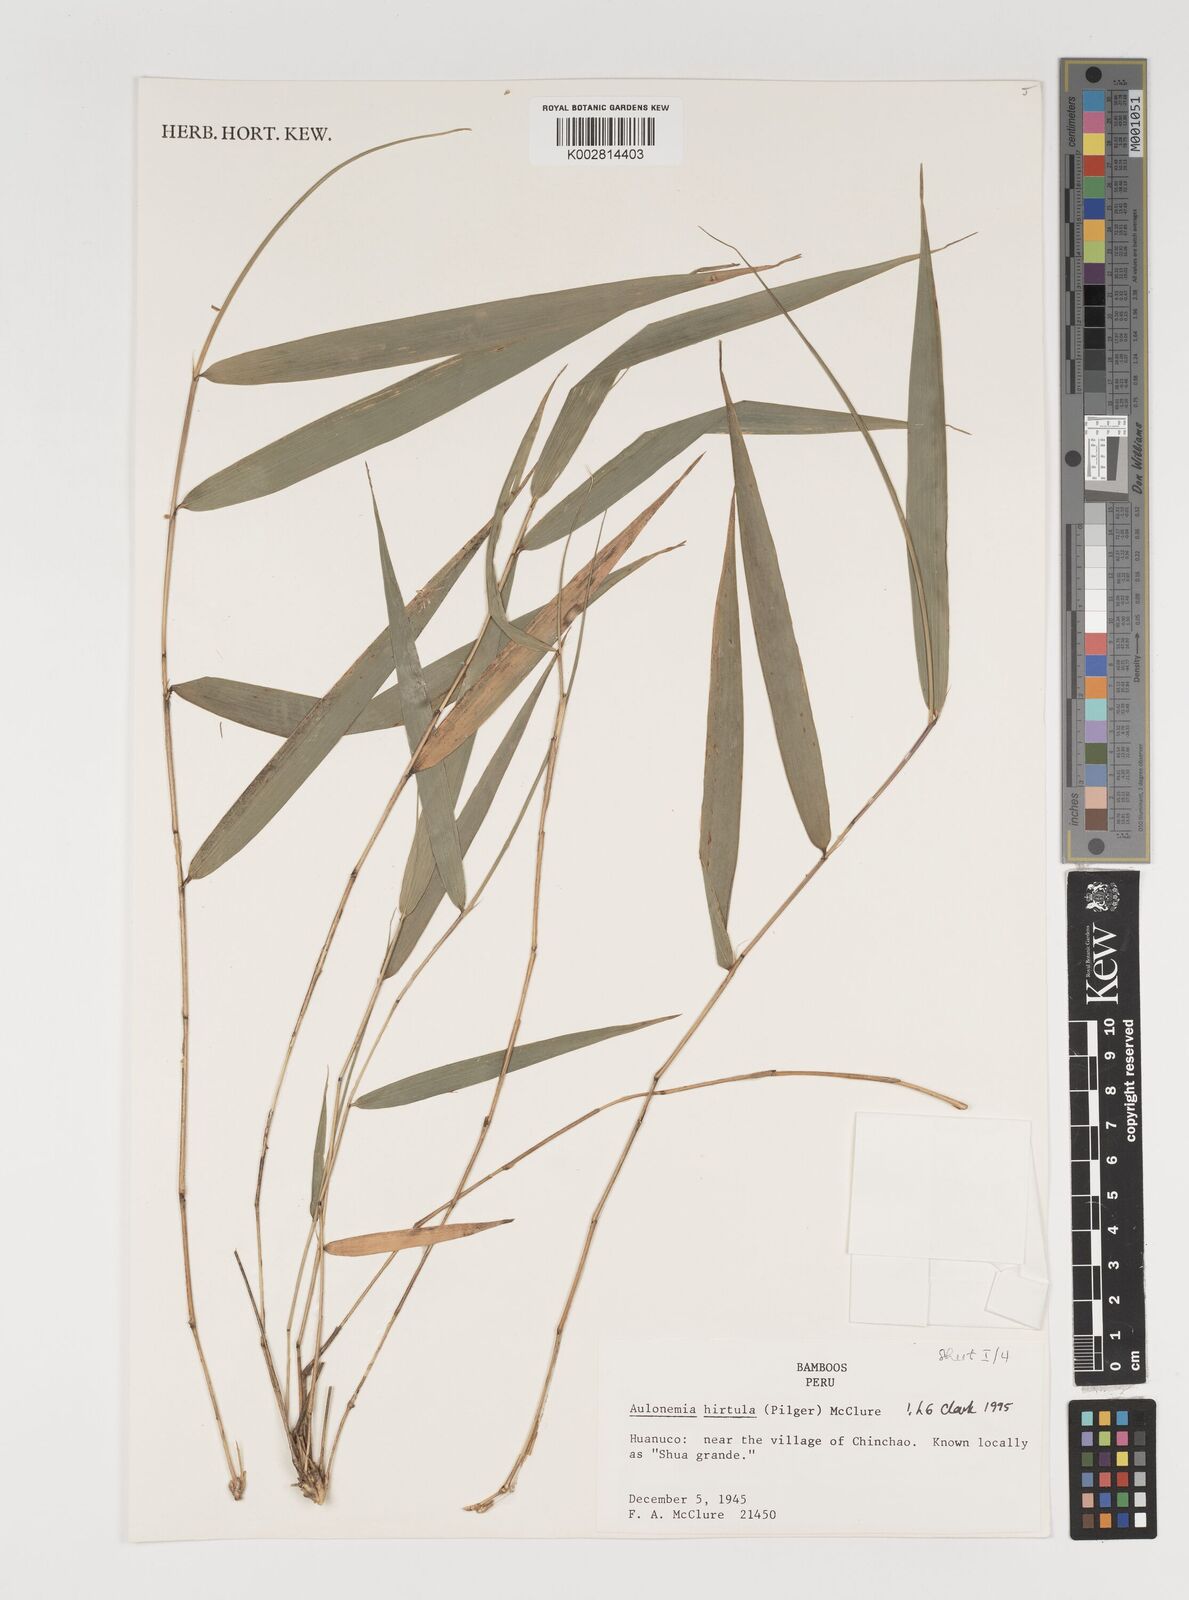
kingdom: Plantae
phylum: Tracheophyta
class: Liliopsida
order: Poales
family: Poaceae
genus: Aulonemia
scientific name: Aulonemia hirtula
